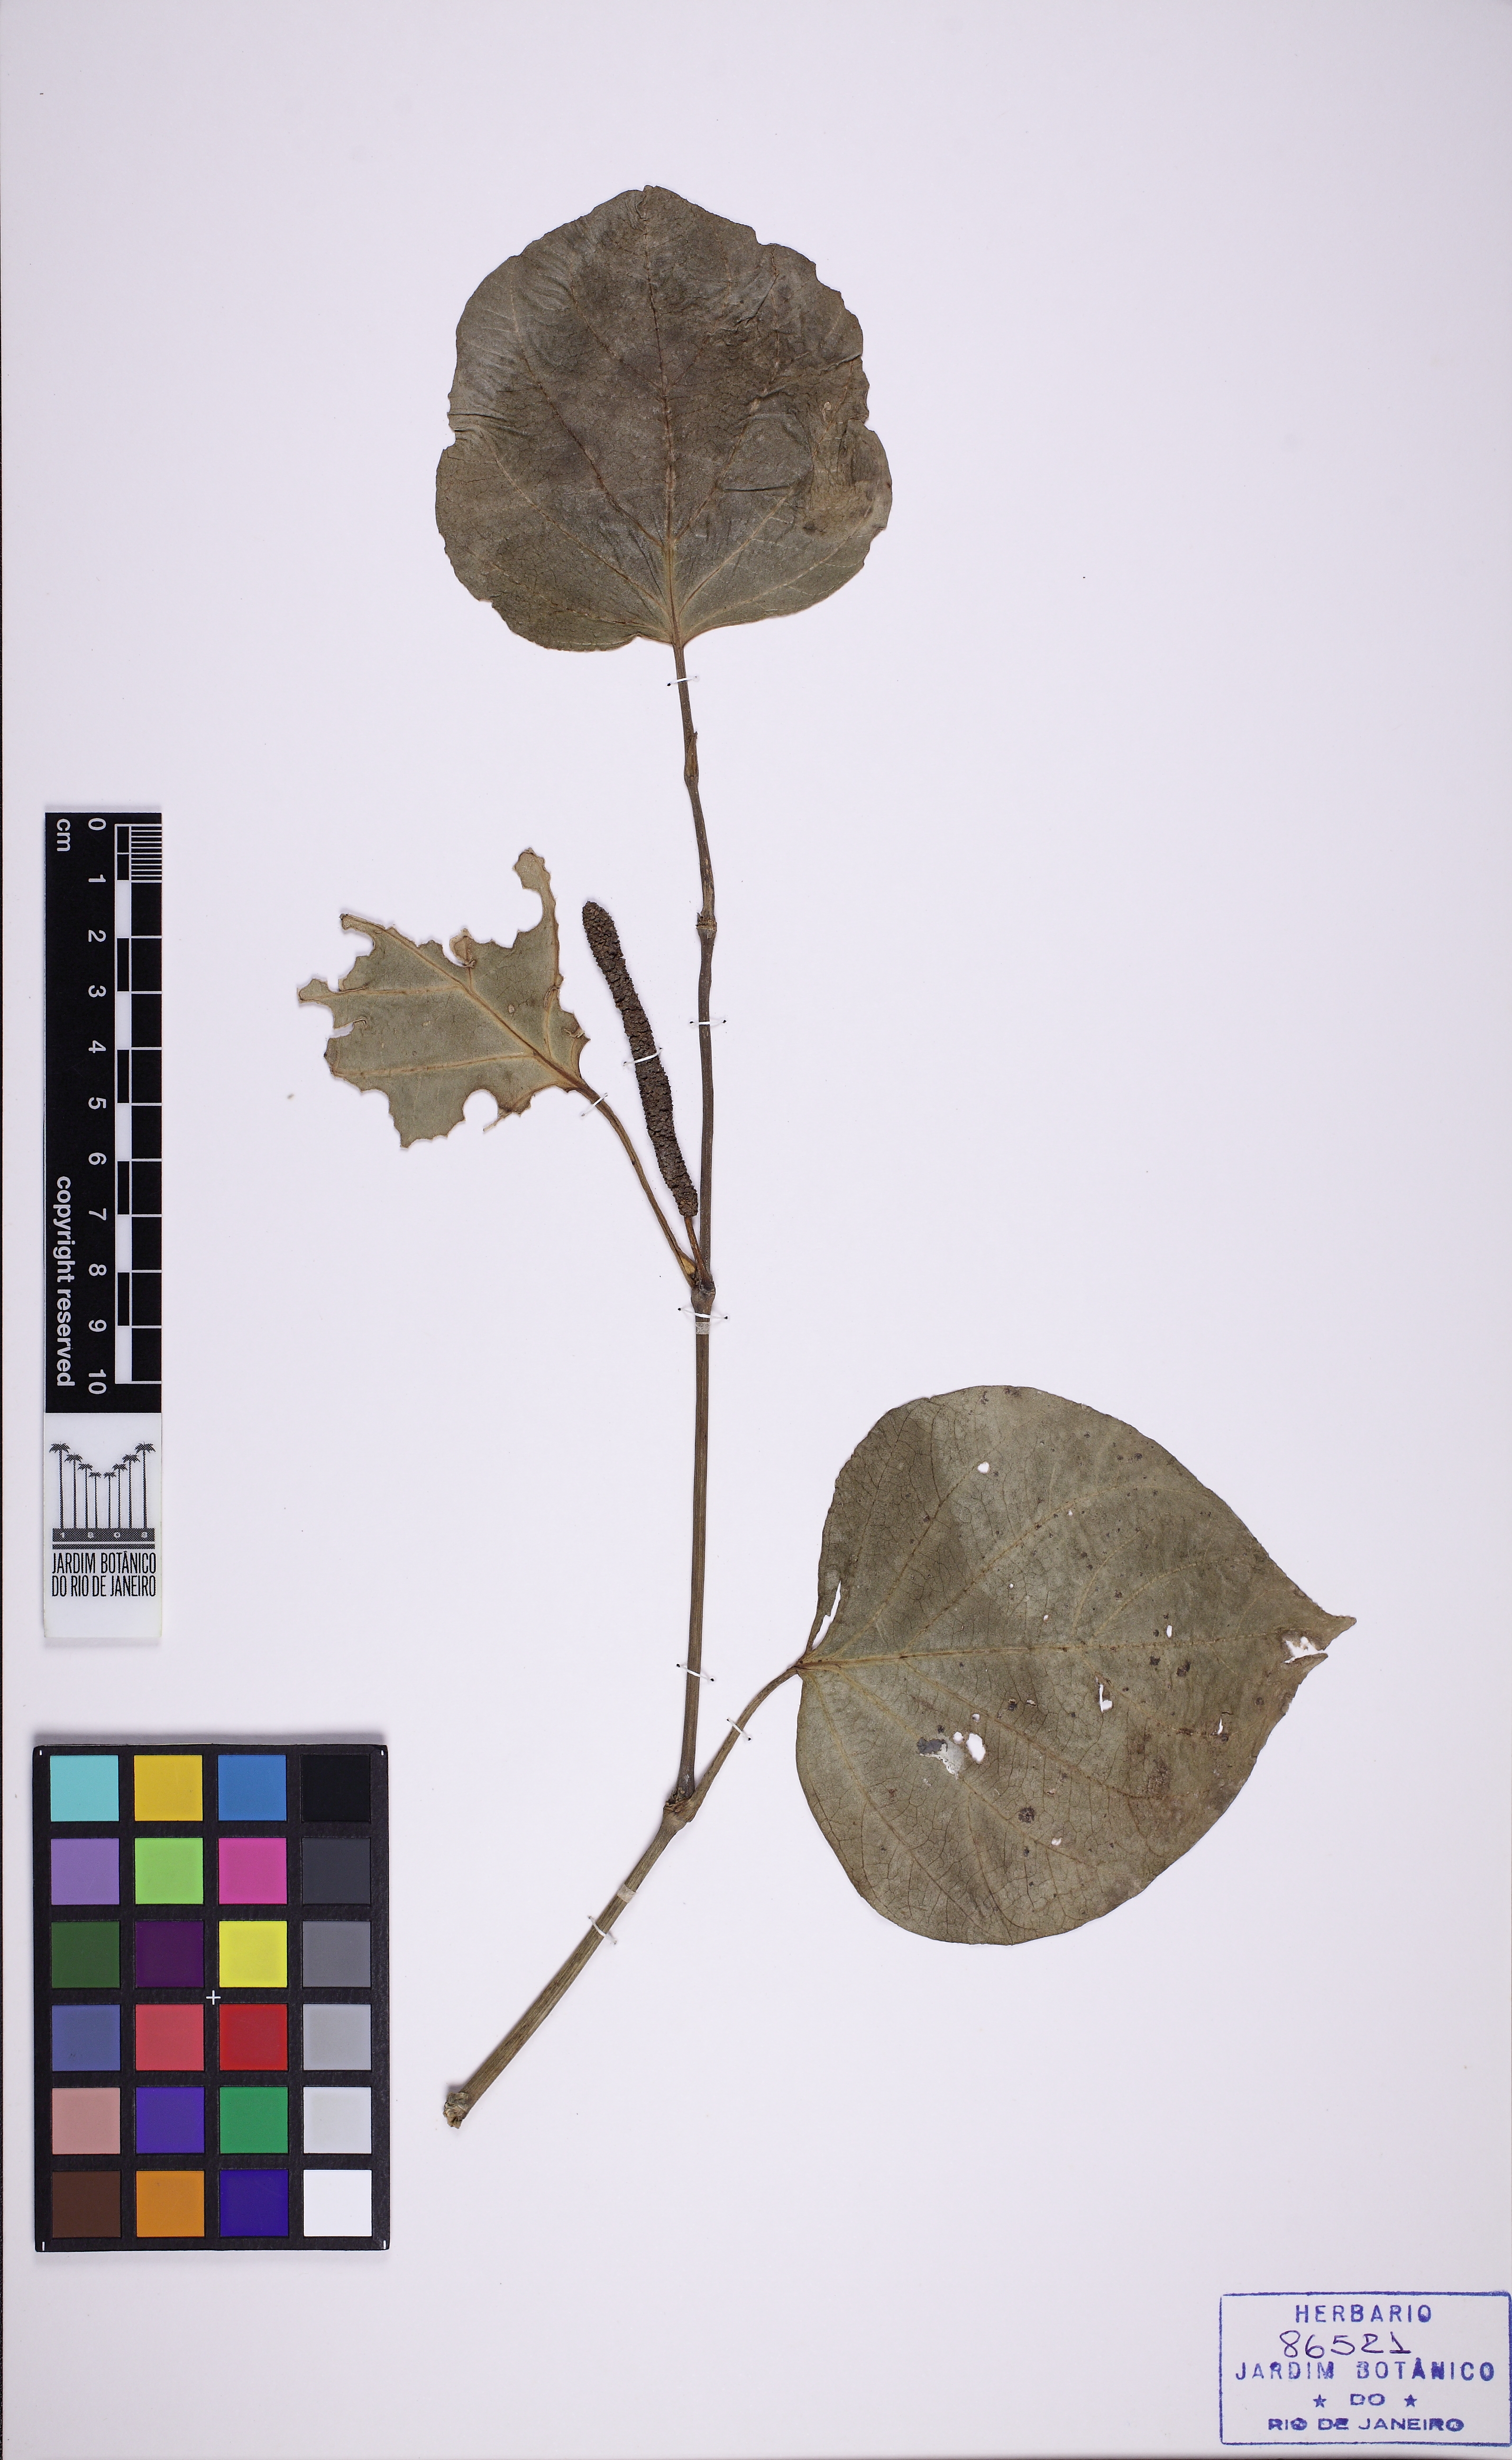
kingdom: Plantae
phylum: Tracheophyta
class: Magnoliopsida
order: Piperales
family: Piperaceae
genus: Piper
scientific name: Piper regnellii
